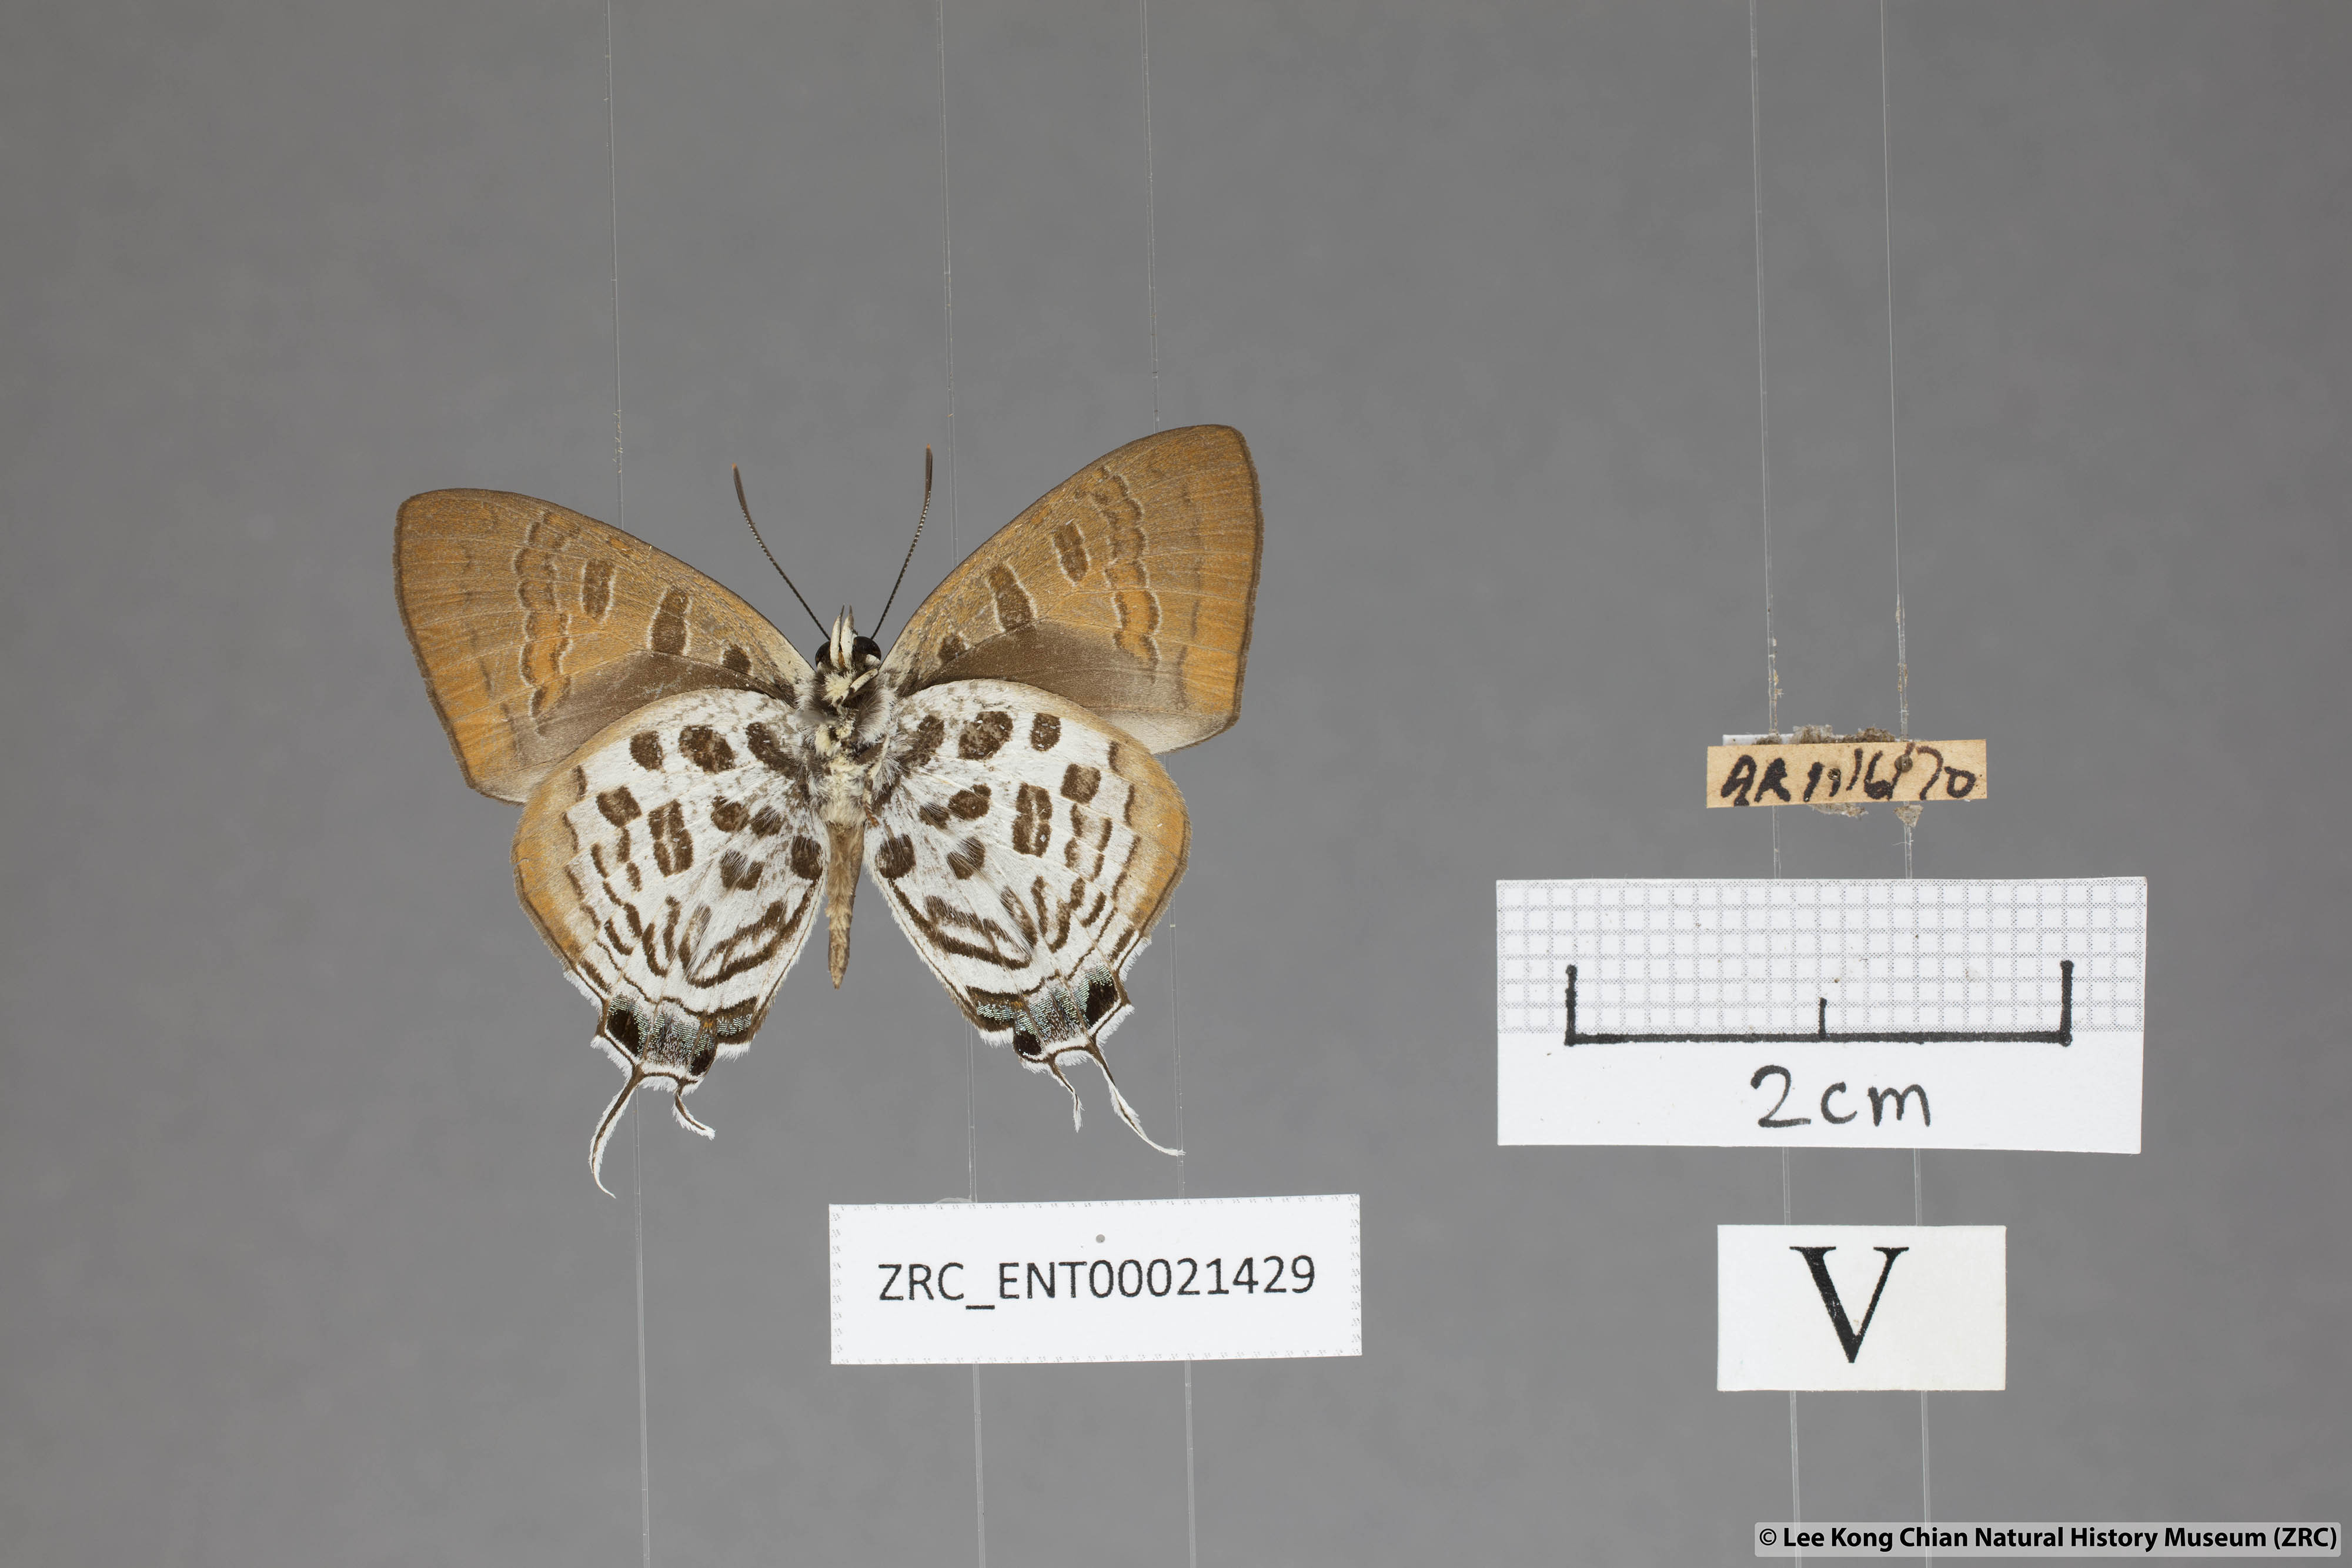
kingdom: Animalia
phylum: Arthropoda
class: Insecta
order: Lepidoptera
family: Lycaenidae
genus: Drupadia
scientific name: Drupadia theda
